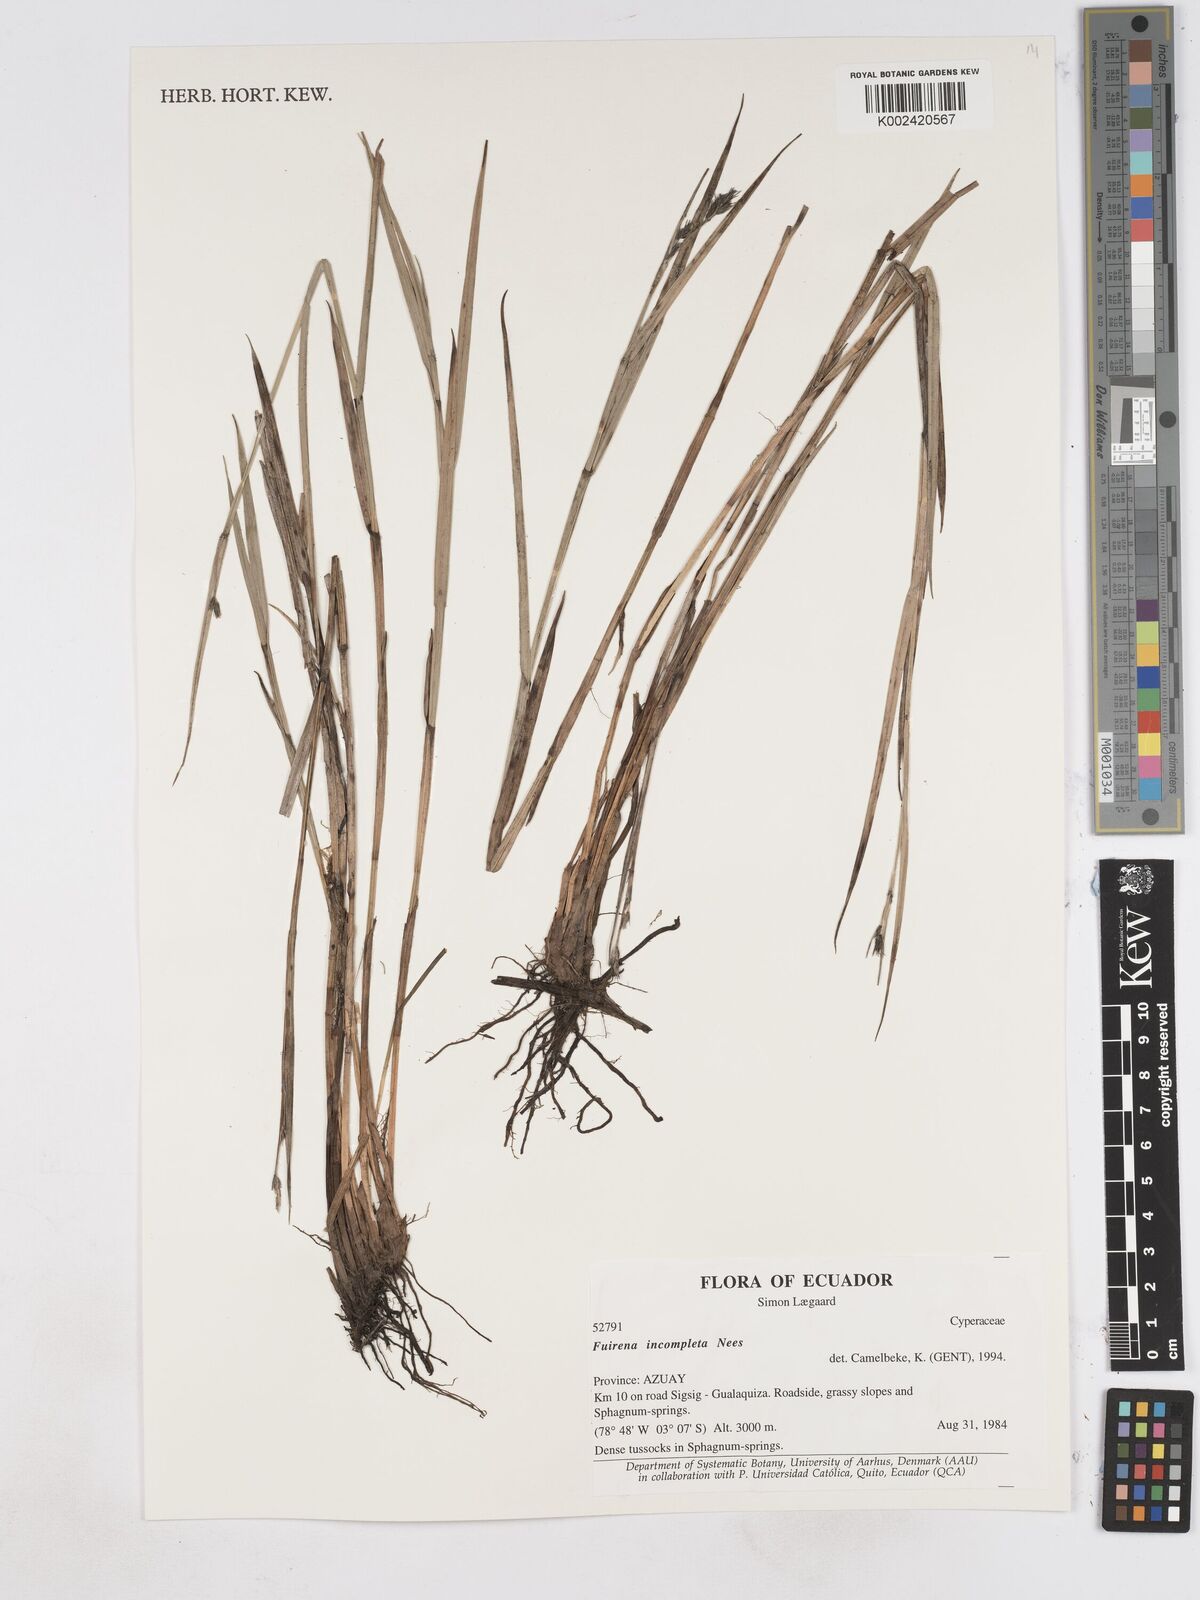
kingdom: Plantae
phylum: Tracheophyta
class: Liliopsida
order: Poales
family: Cyperaceae
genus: Fuirena
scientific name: Fuirena incompleta
